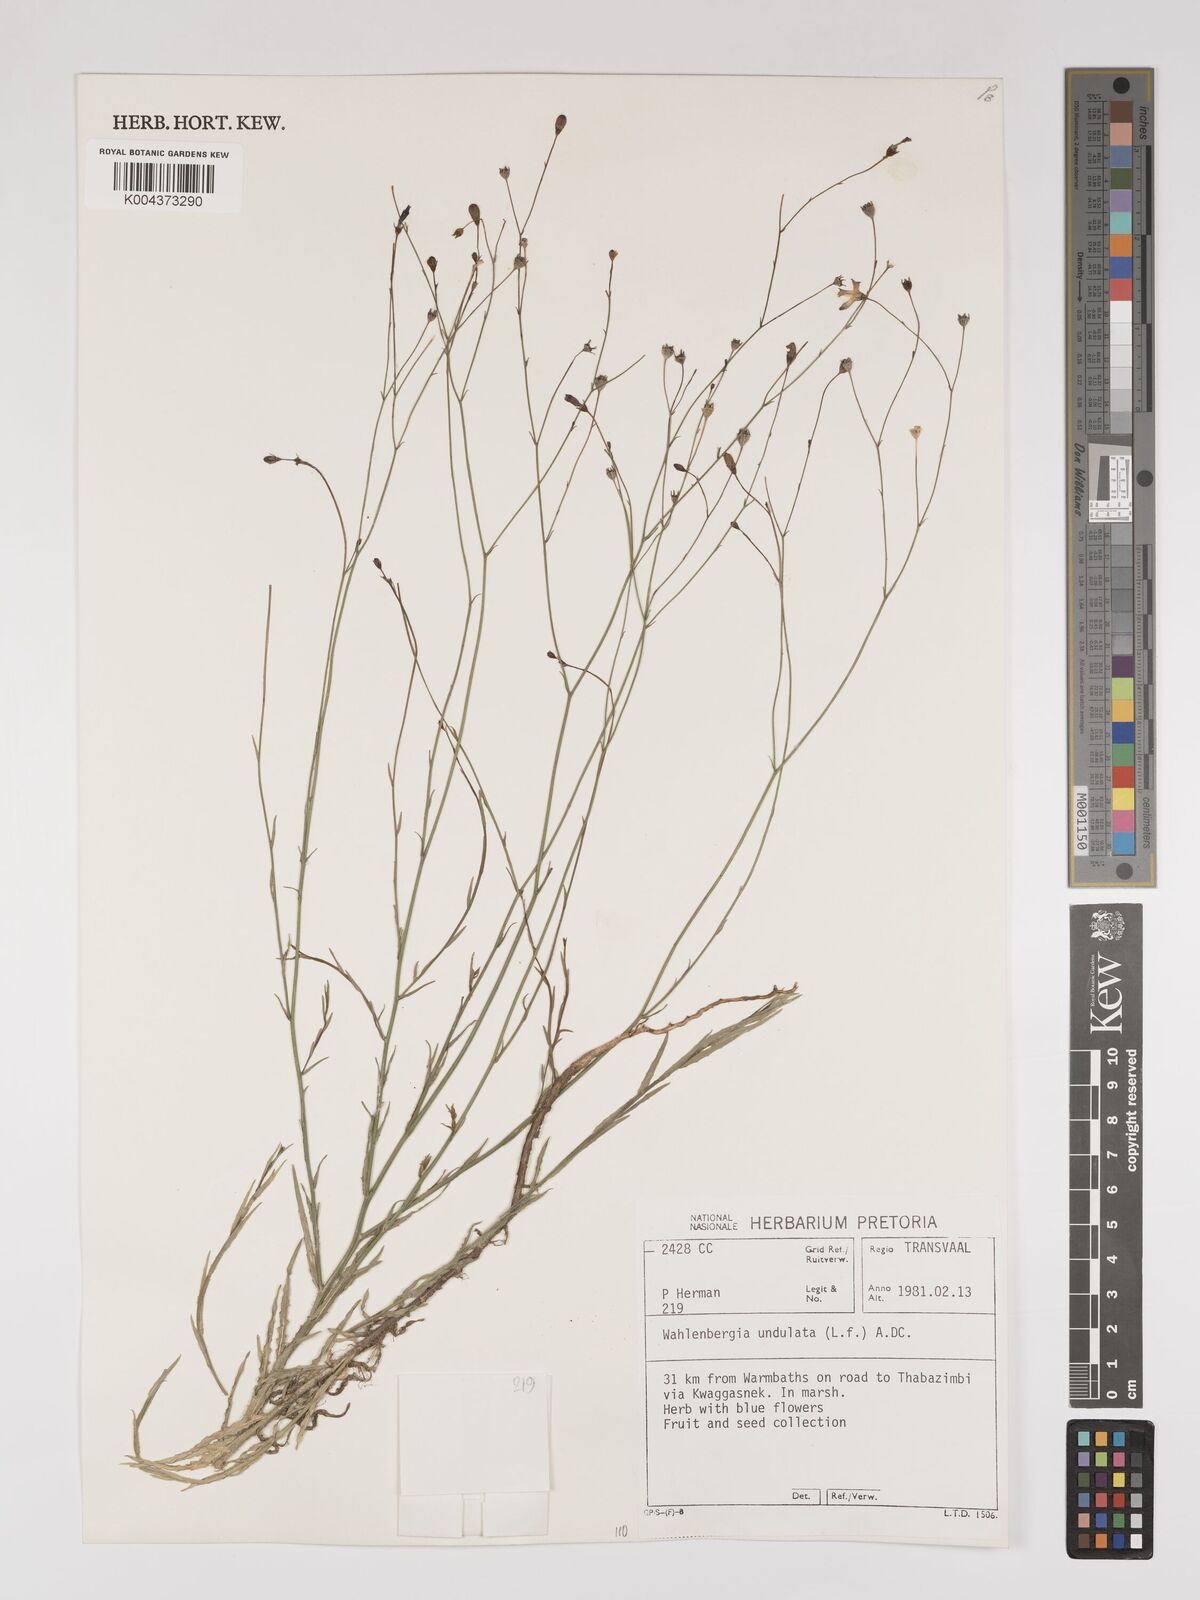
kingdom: Plantae
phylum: Tracheophyta
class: Magnoliopsida
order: Asterales
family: Campanulaceae
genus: Wahlenbergia
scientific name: Wahlenbergia undulata
